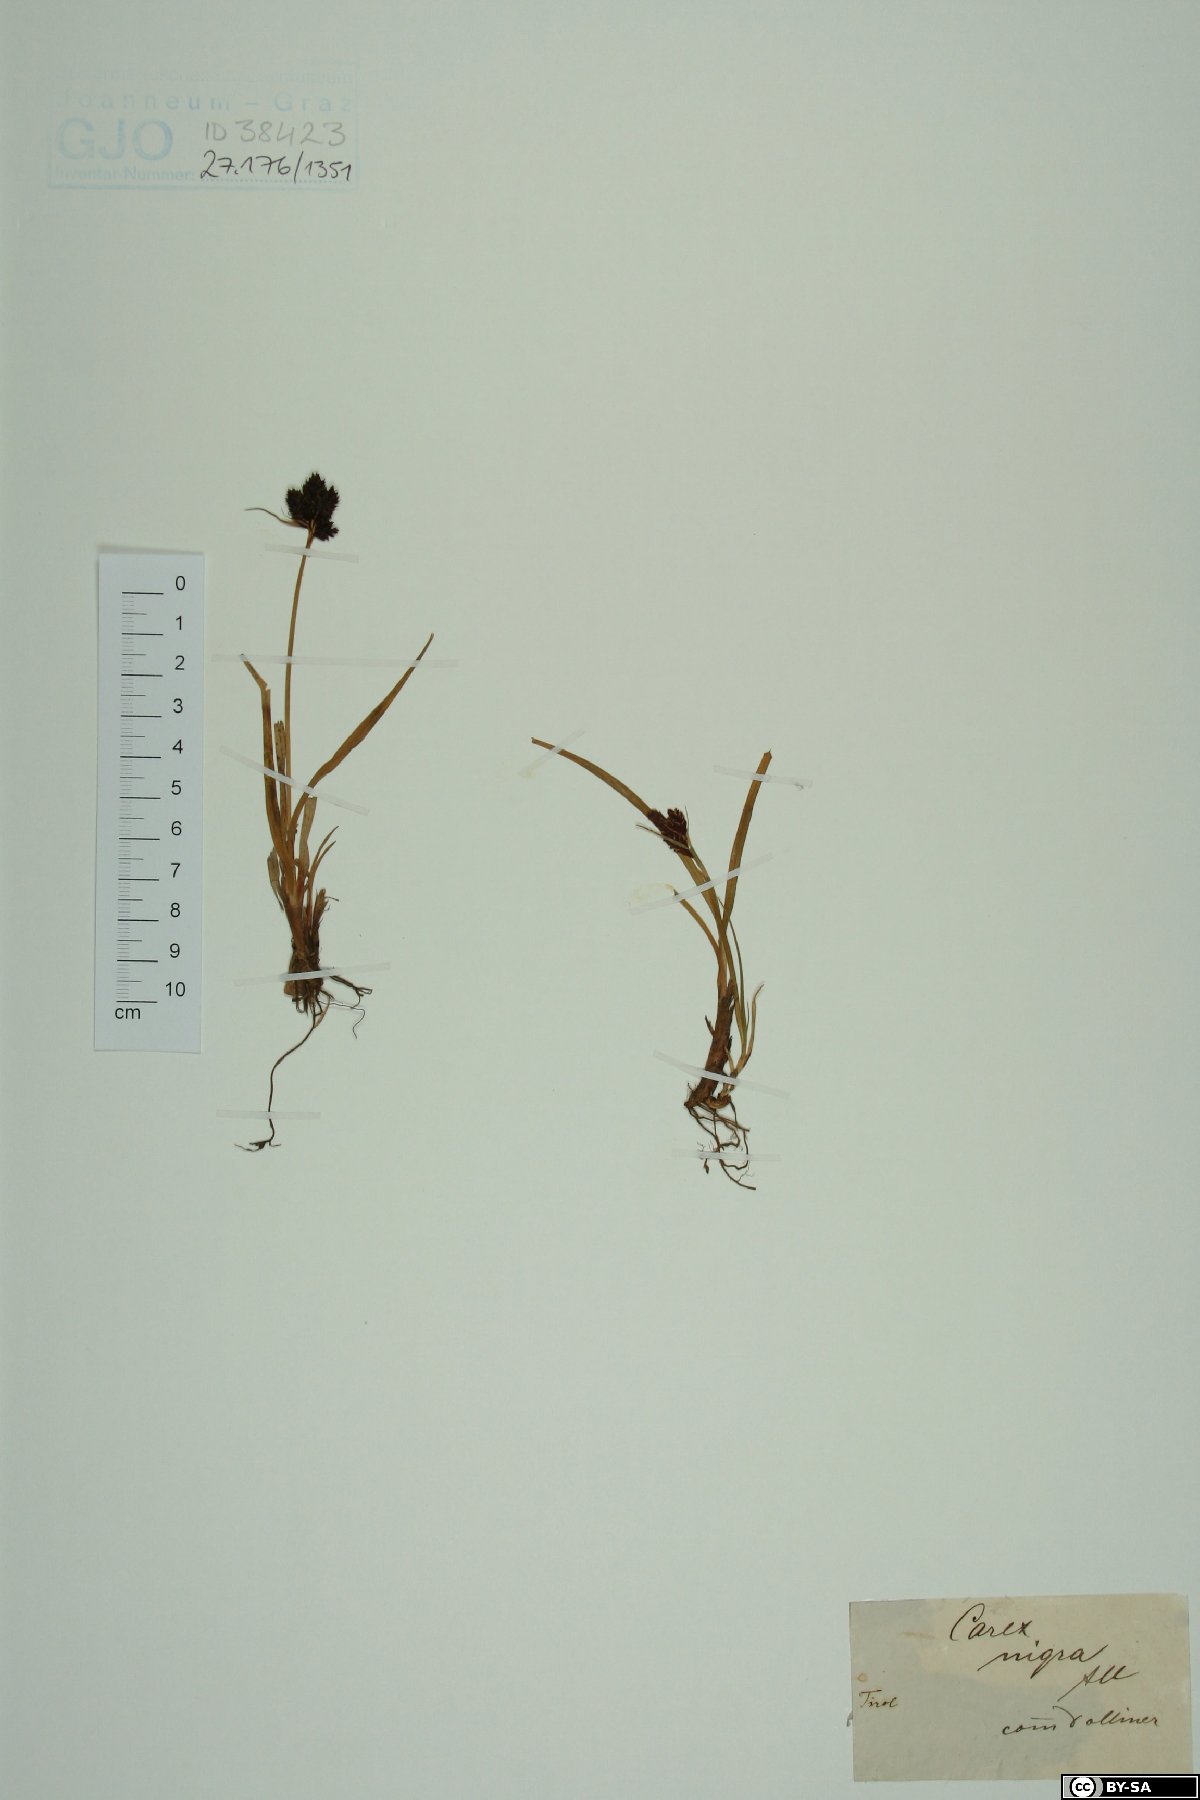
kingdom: Plantae
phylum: Tracheophyta
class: Liliopsida
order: Poales
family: Cyperaceae
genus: Carex
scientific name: Carex nigra
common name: Common sedge
